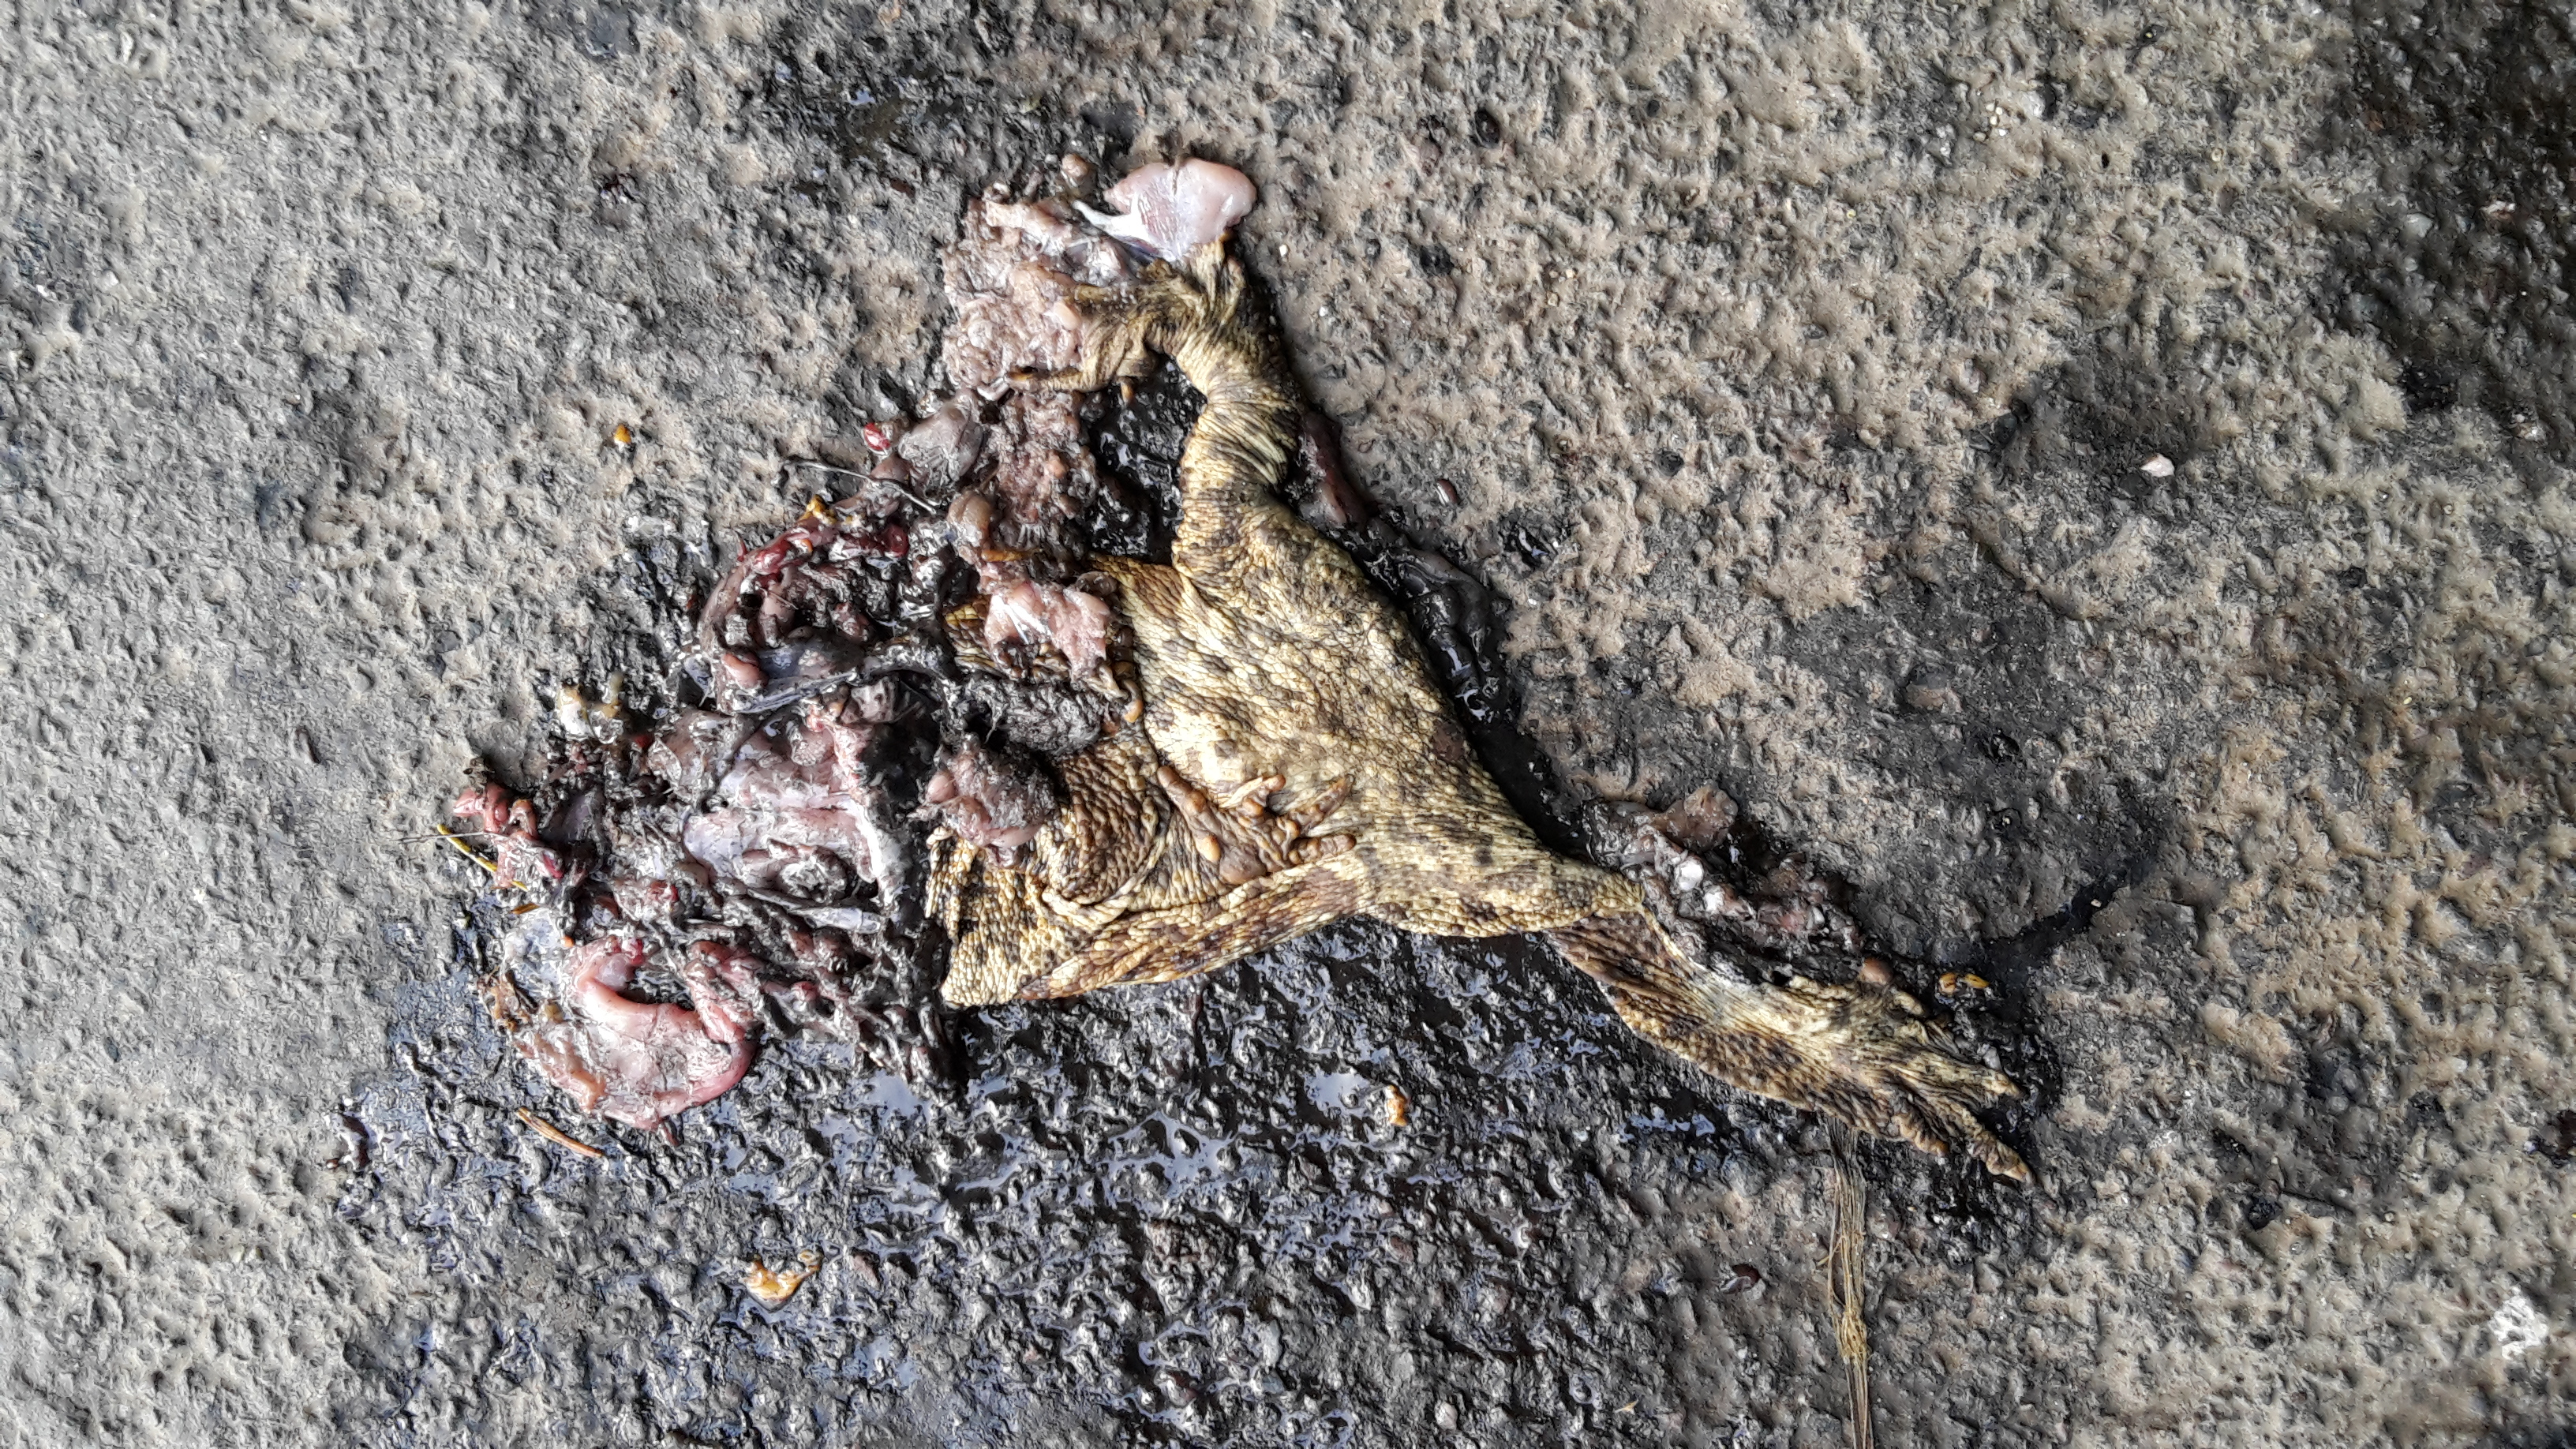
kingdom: Animalia
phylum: Chordata
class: Amphibia
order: Anura
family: Bufonidae
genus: Bufo
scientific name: Bufo bufo
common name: Common toad
